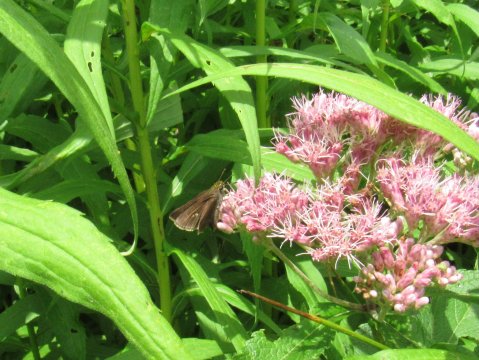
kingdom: Animalia
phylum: Arthropoda
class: Insecta
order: Lepidoptera
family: Hesperiidae
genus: Euphyes
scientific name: Euphyes vestris
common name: Dun Skipper
